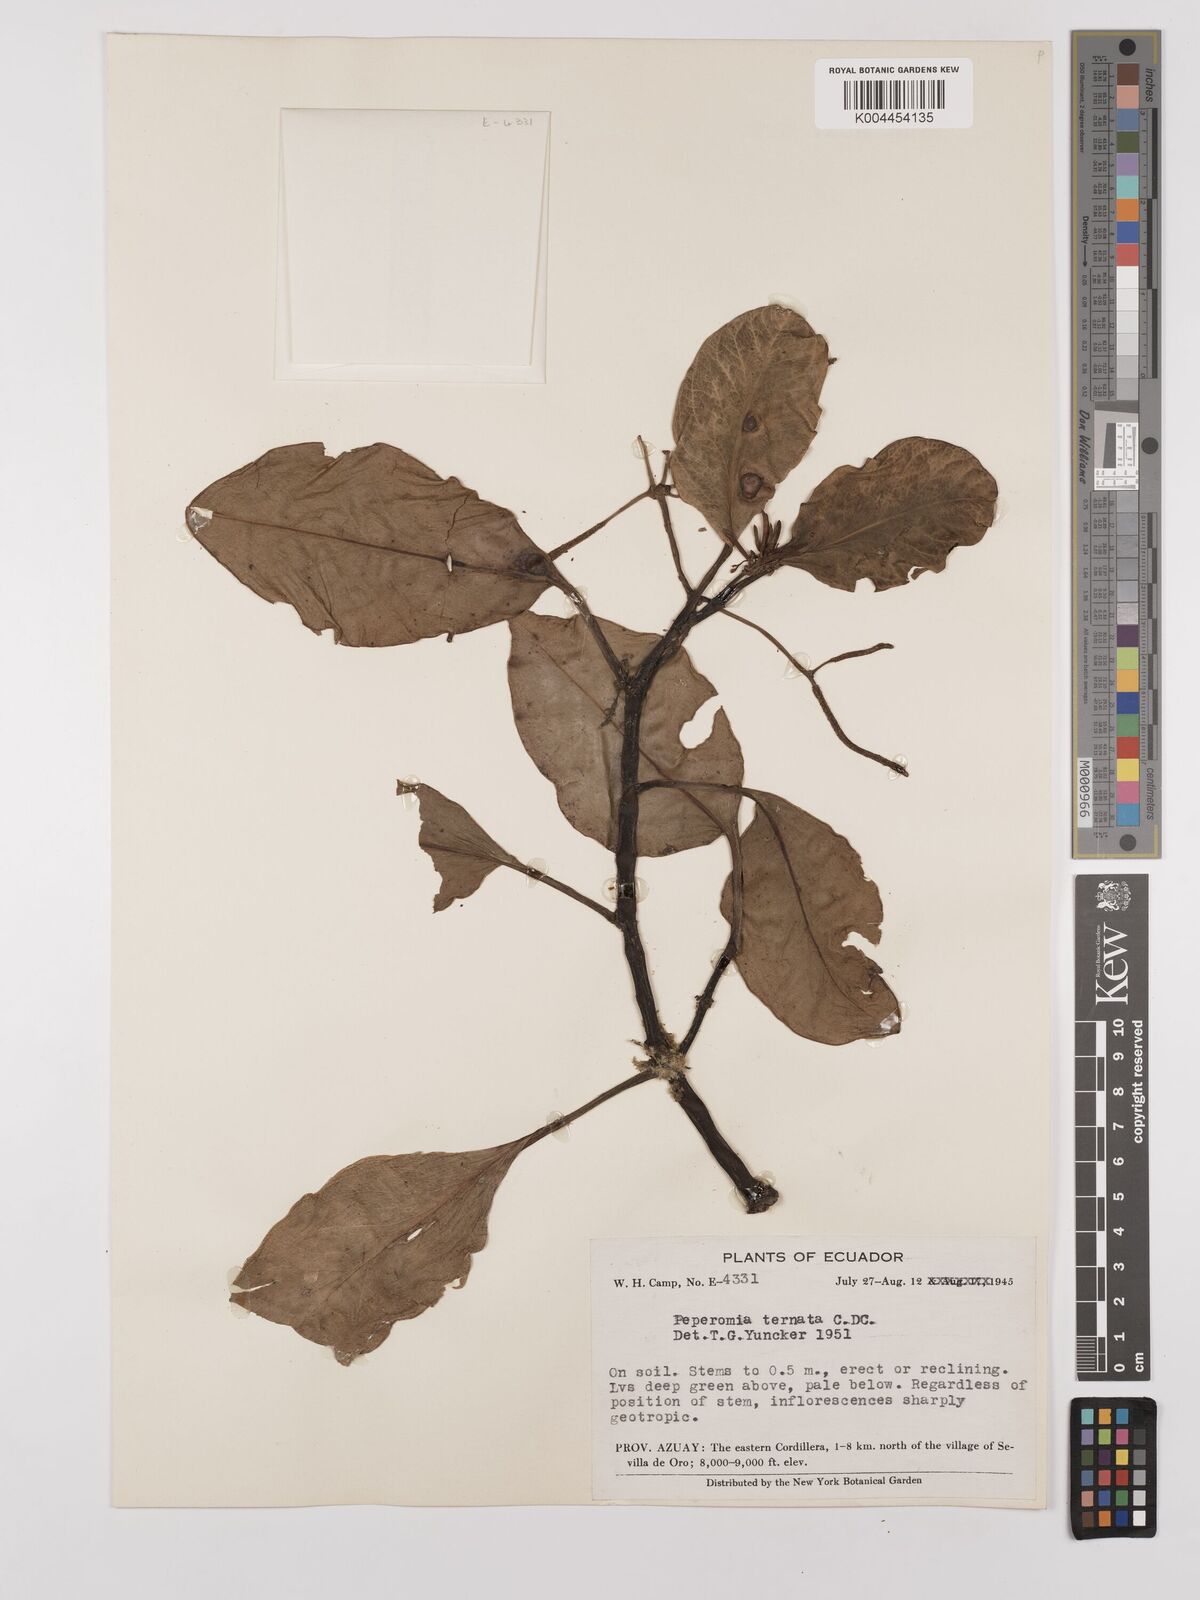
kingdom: Plantae
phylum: Tracheophyta
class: Magnoliopsida
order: Piperales
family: Piperaceae
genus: Peperomia
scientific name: Peperomia ternata
